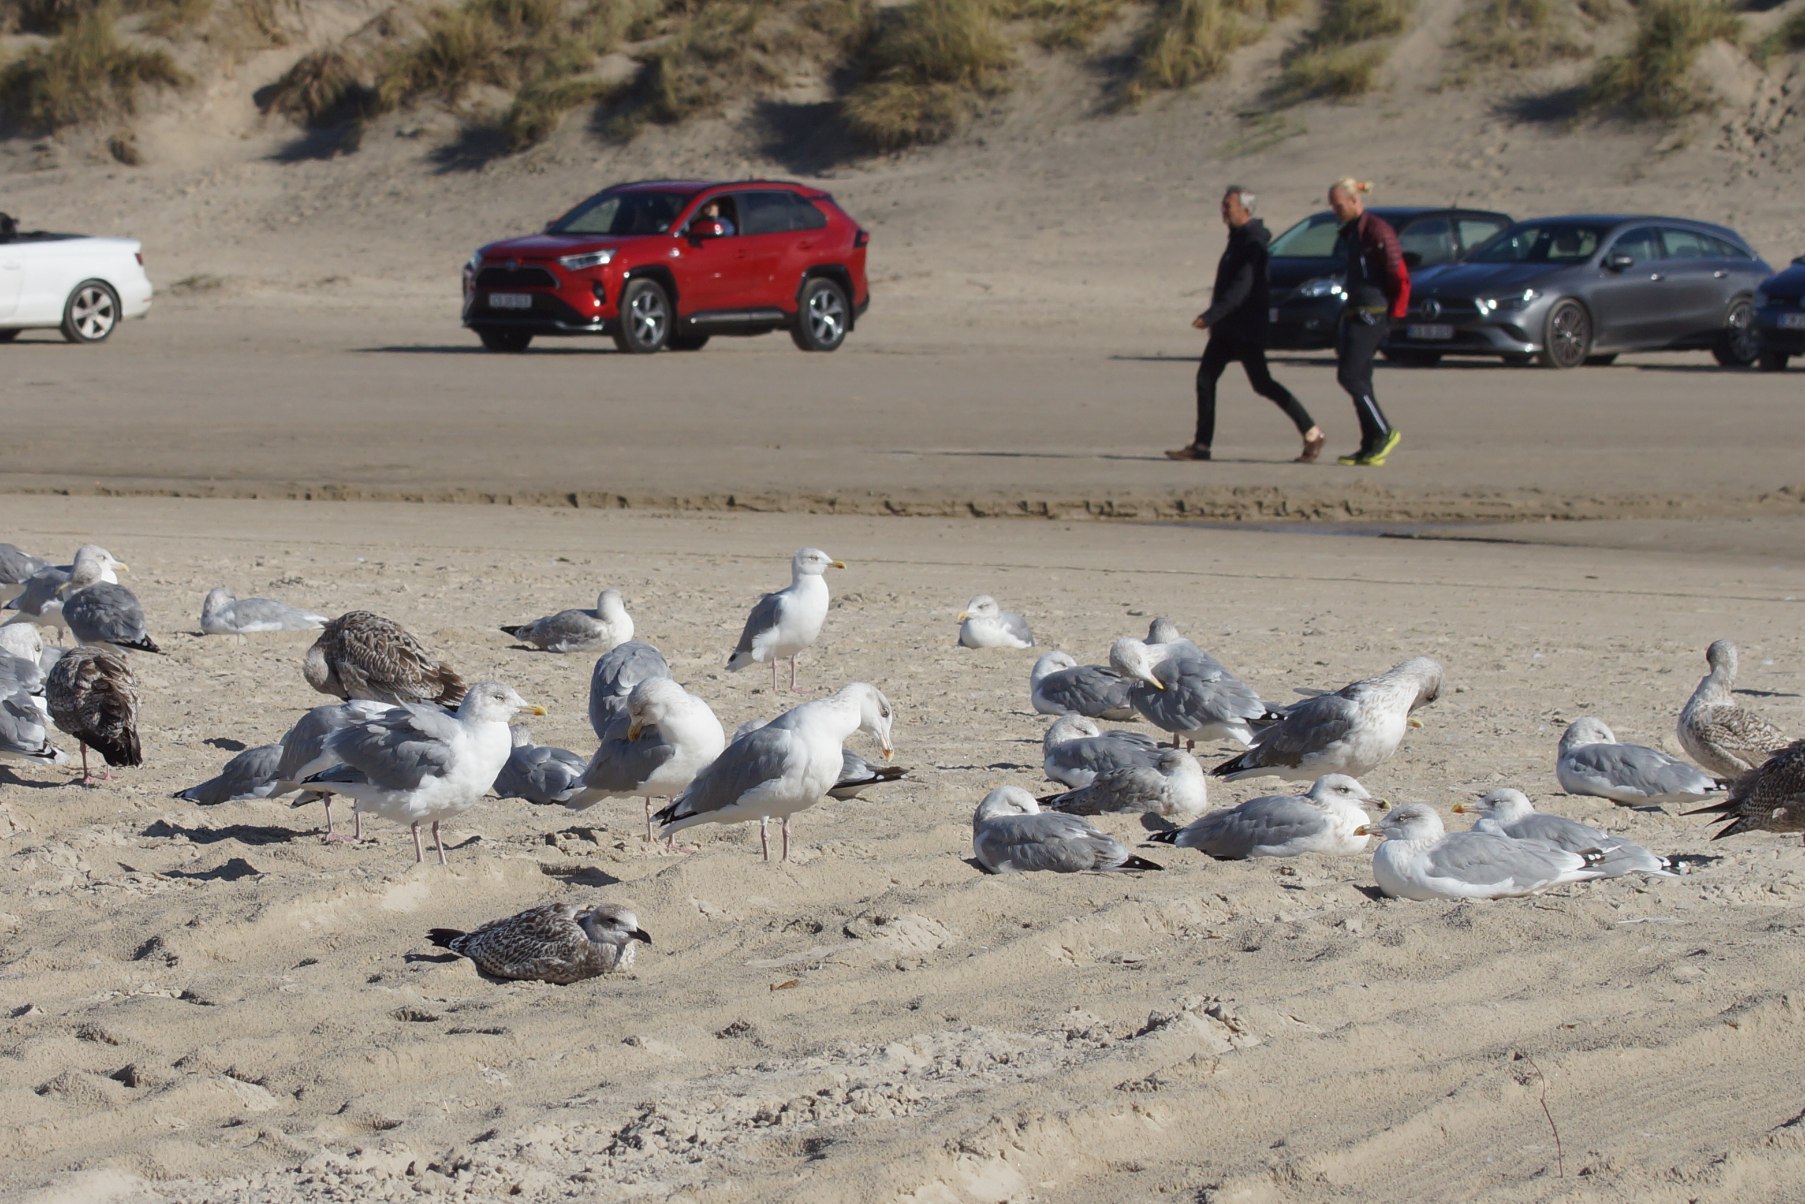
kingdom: Animalia
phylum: Chordata
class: Aves
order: Charadriiformes
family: Laridae
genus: Larus
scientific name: Larus argentatus
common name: Sølvmåge
